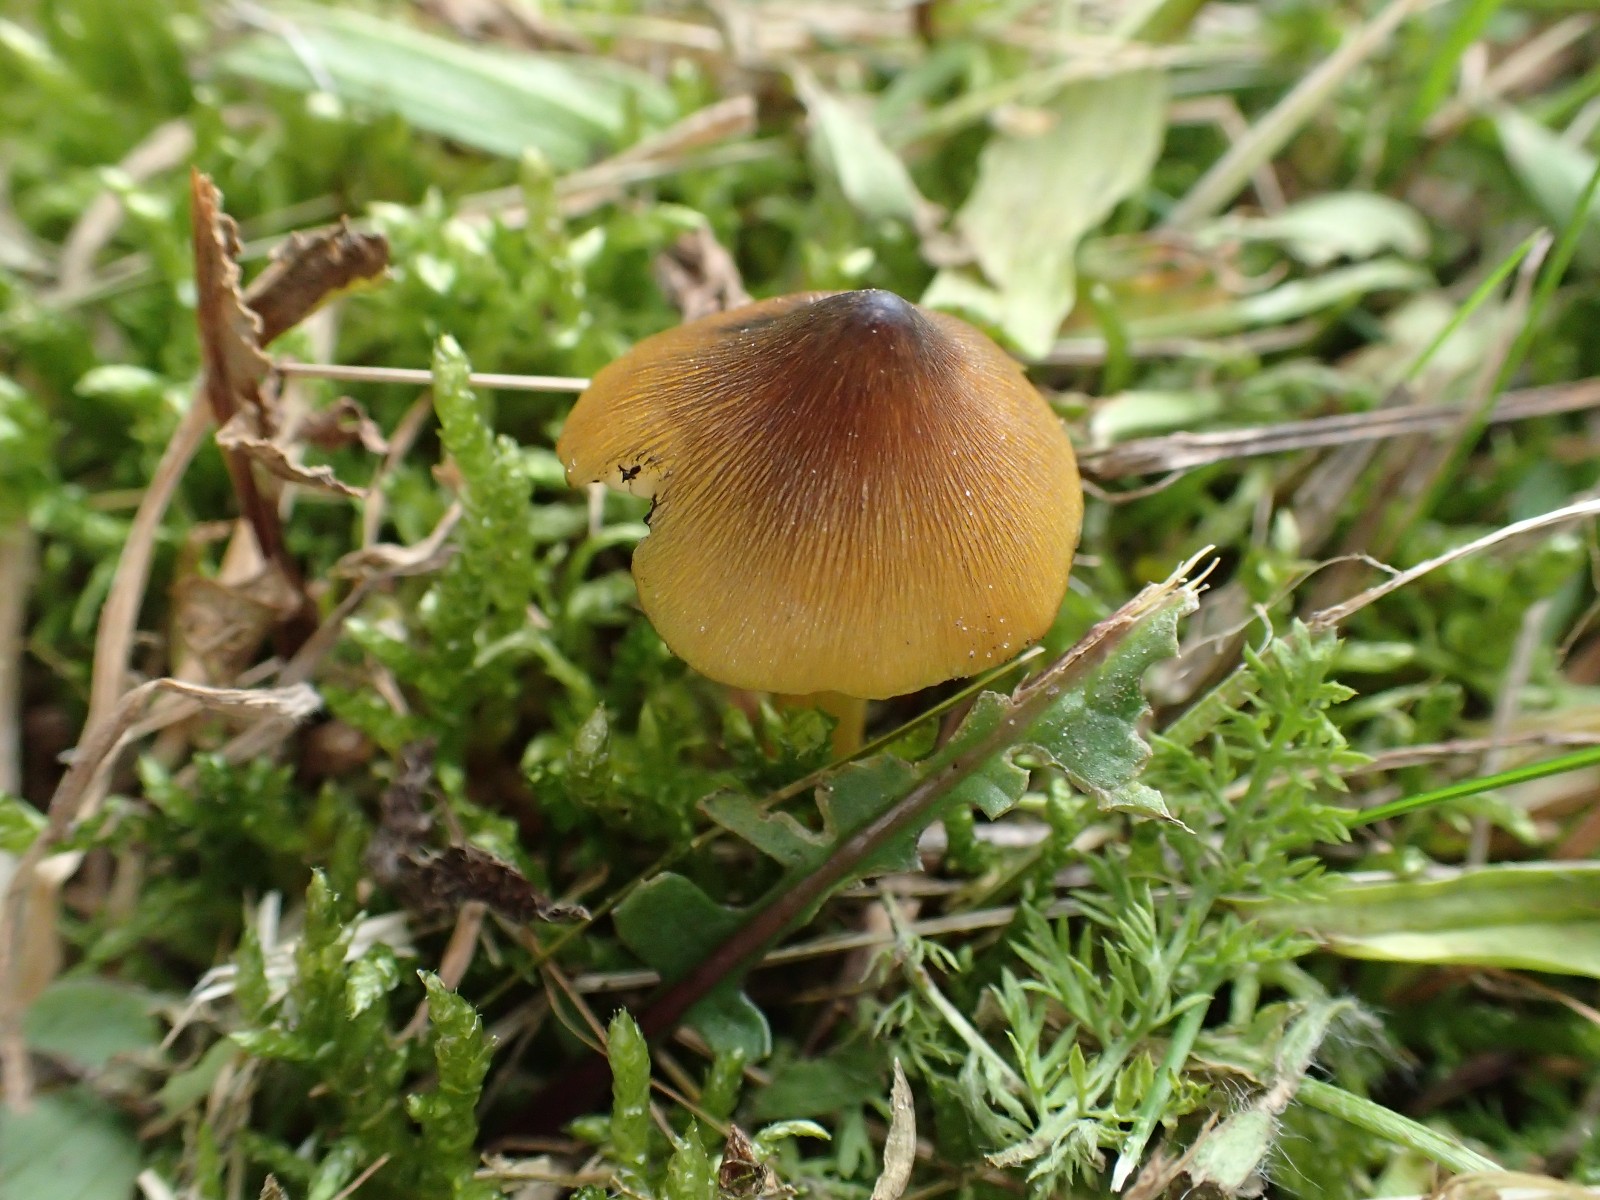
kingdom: Fungi
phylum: Basidiomycota
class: Agaricomycetes
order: Agaricales
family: Hygrophoraceae
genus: Hygrocybe
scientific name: Hygrocybe conica
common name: kegle-vokshat
